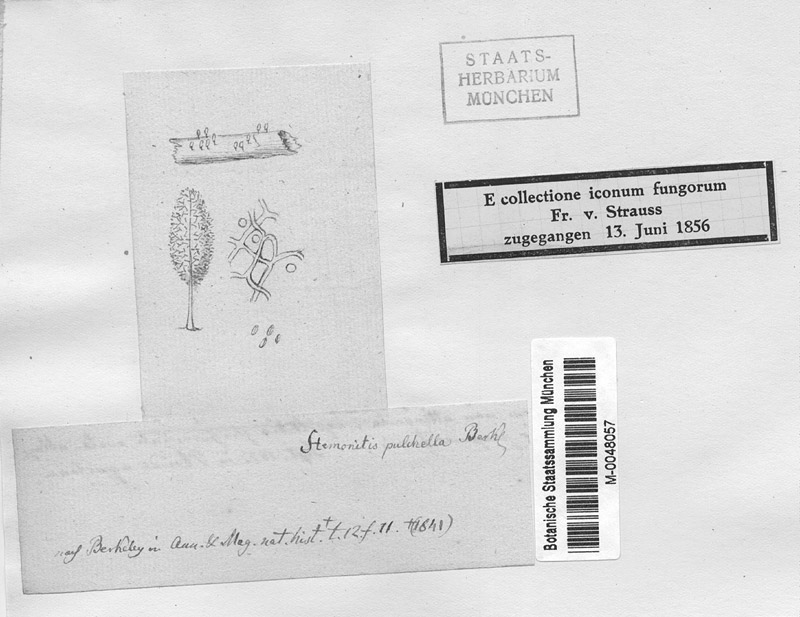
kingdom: Protozoa
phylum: Mycetozoa
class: Myxomycetes
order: Stemonitidales
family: Stemonitidaceae
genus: Comatricha
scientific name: Comatricha pulchella
